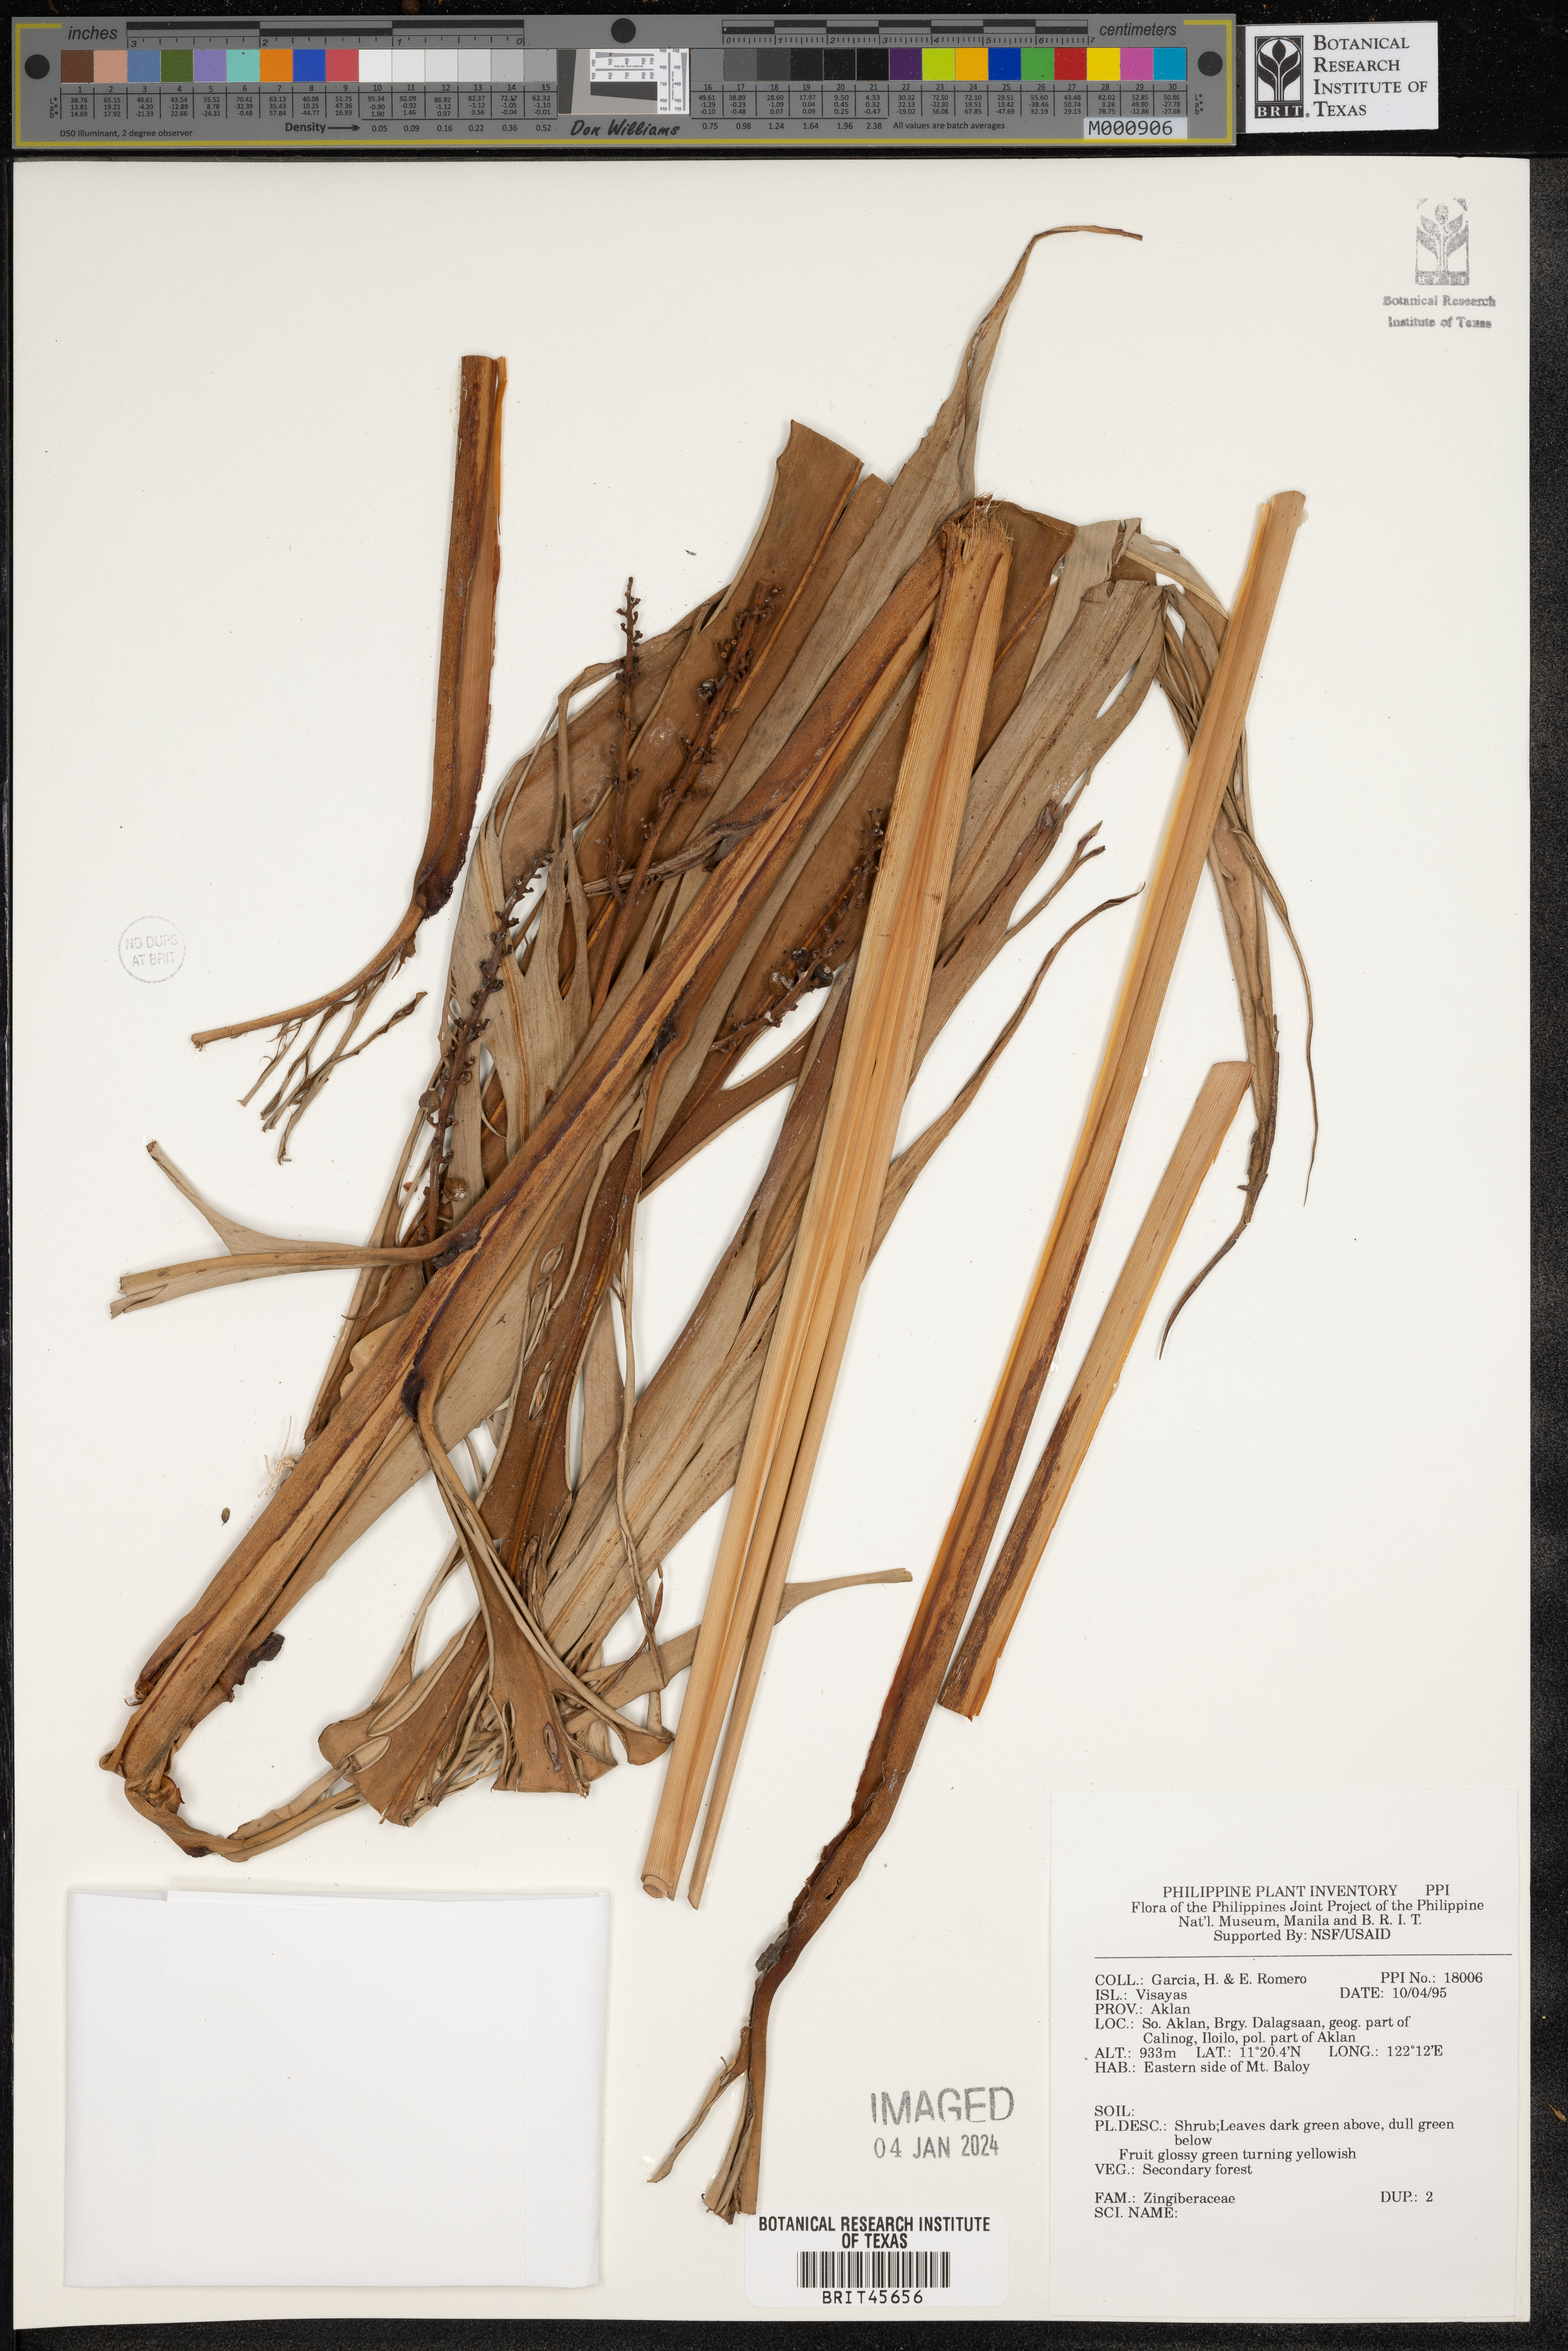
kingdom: Plantae
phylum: Tracheophyta
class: Liliopsida
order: Zingiberales
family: Zingiberaceae
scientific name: Zingiberaceae
